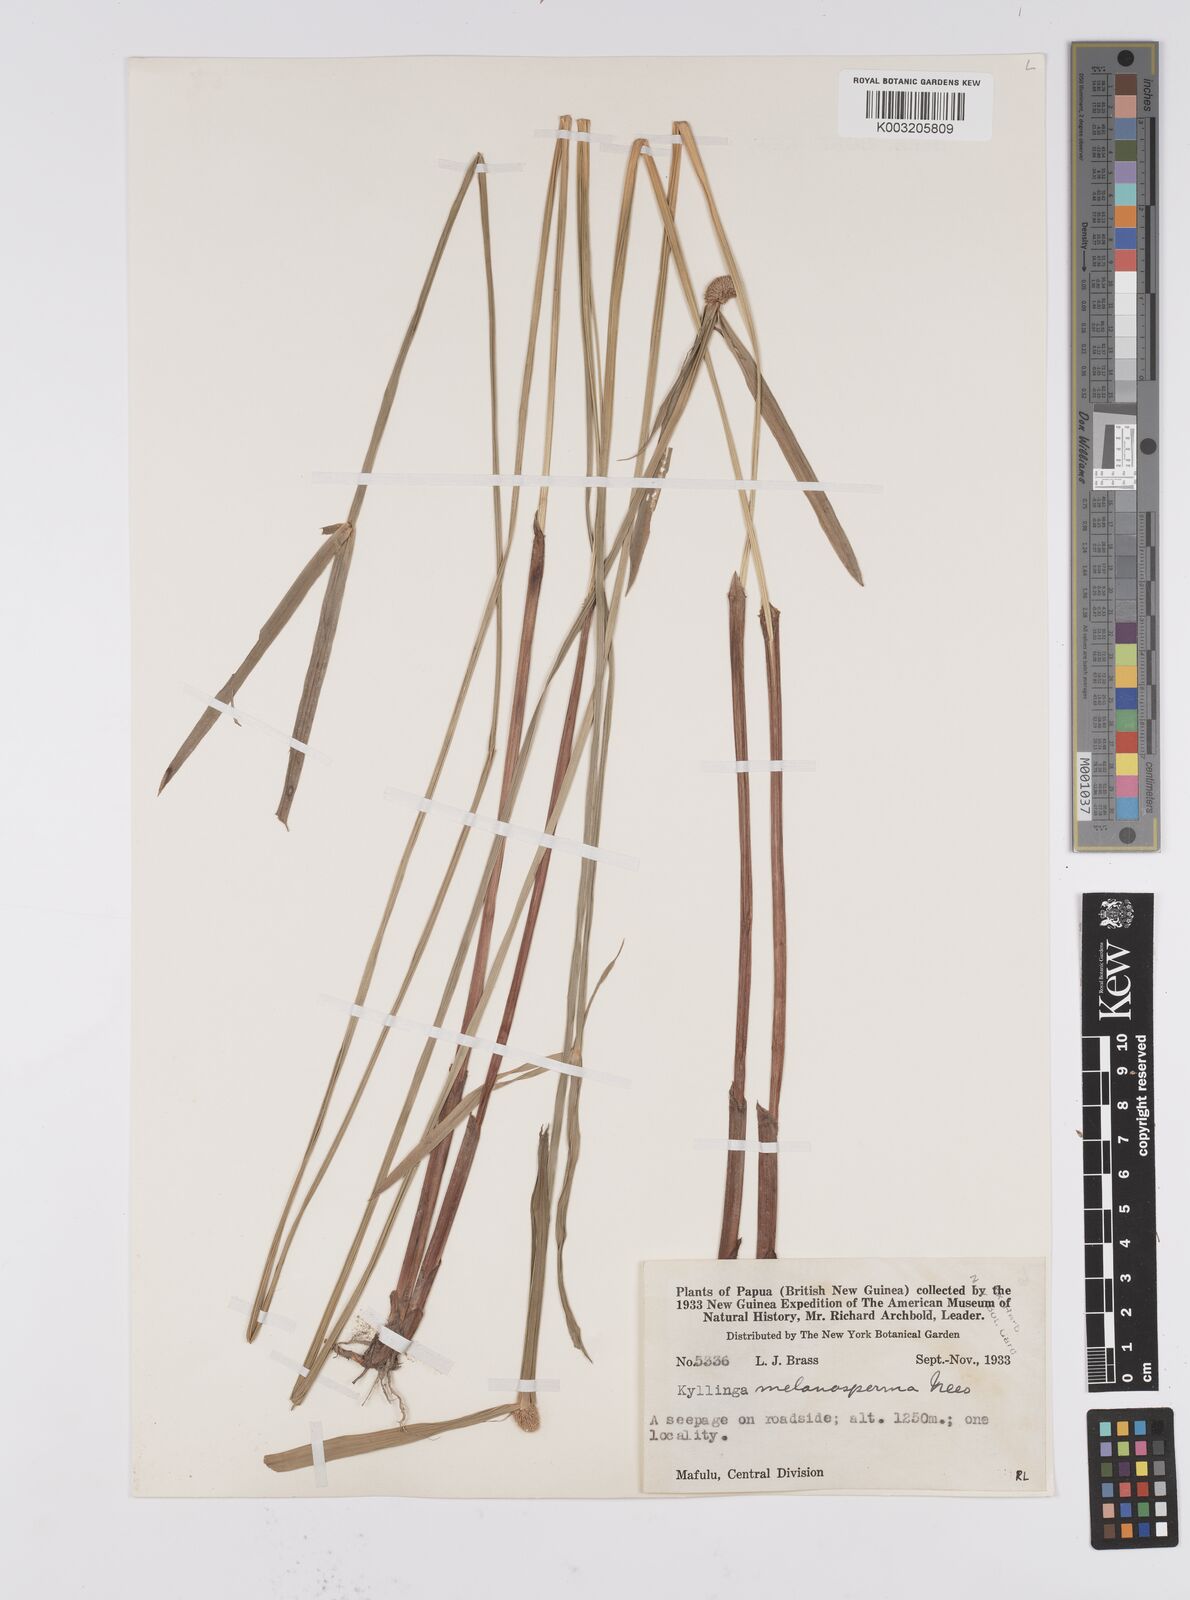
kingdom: Plantae
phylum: Tracheophyta
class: Liliopsida
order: Poales
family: Cyperaceae
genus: Cyperus
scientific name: Cyperus melanospermus
